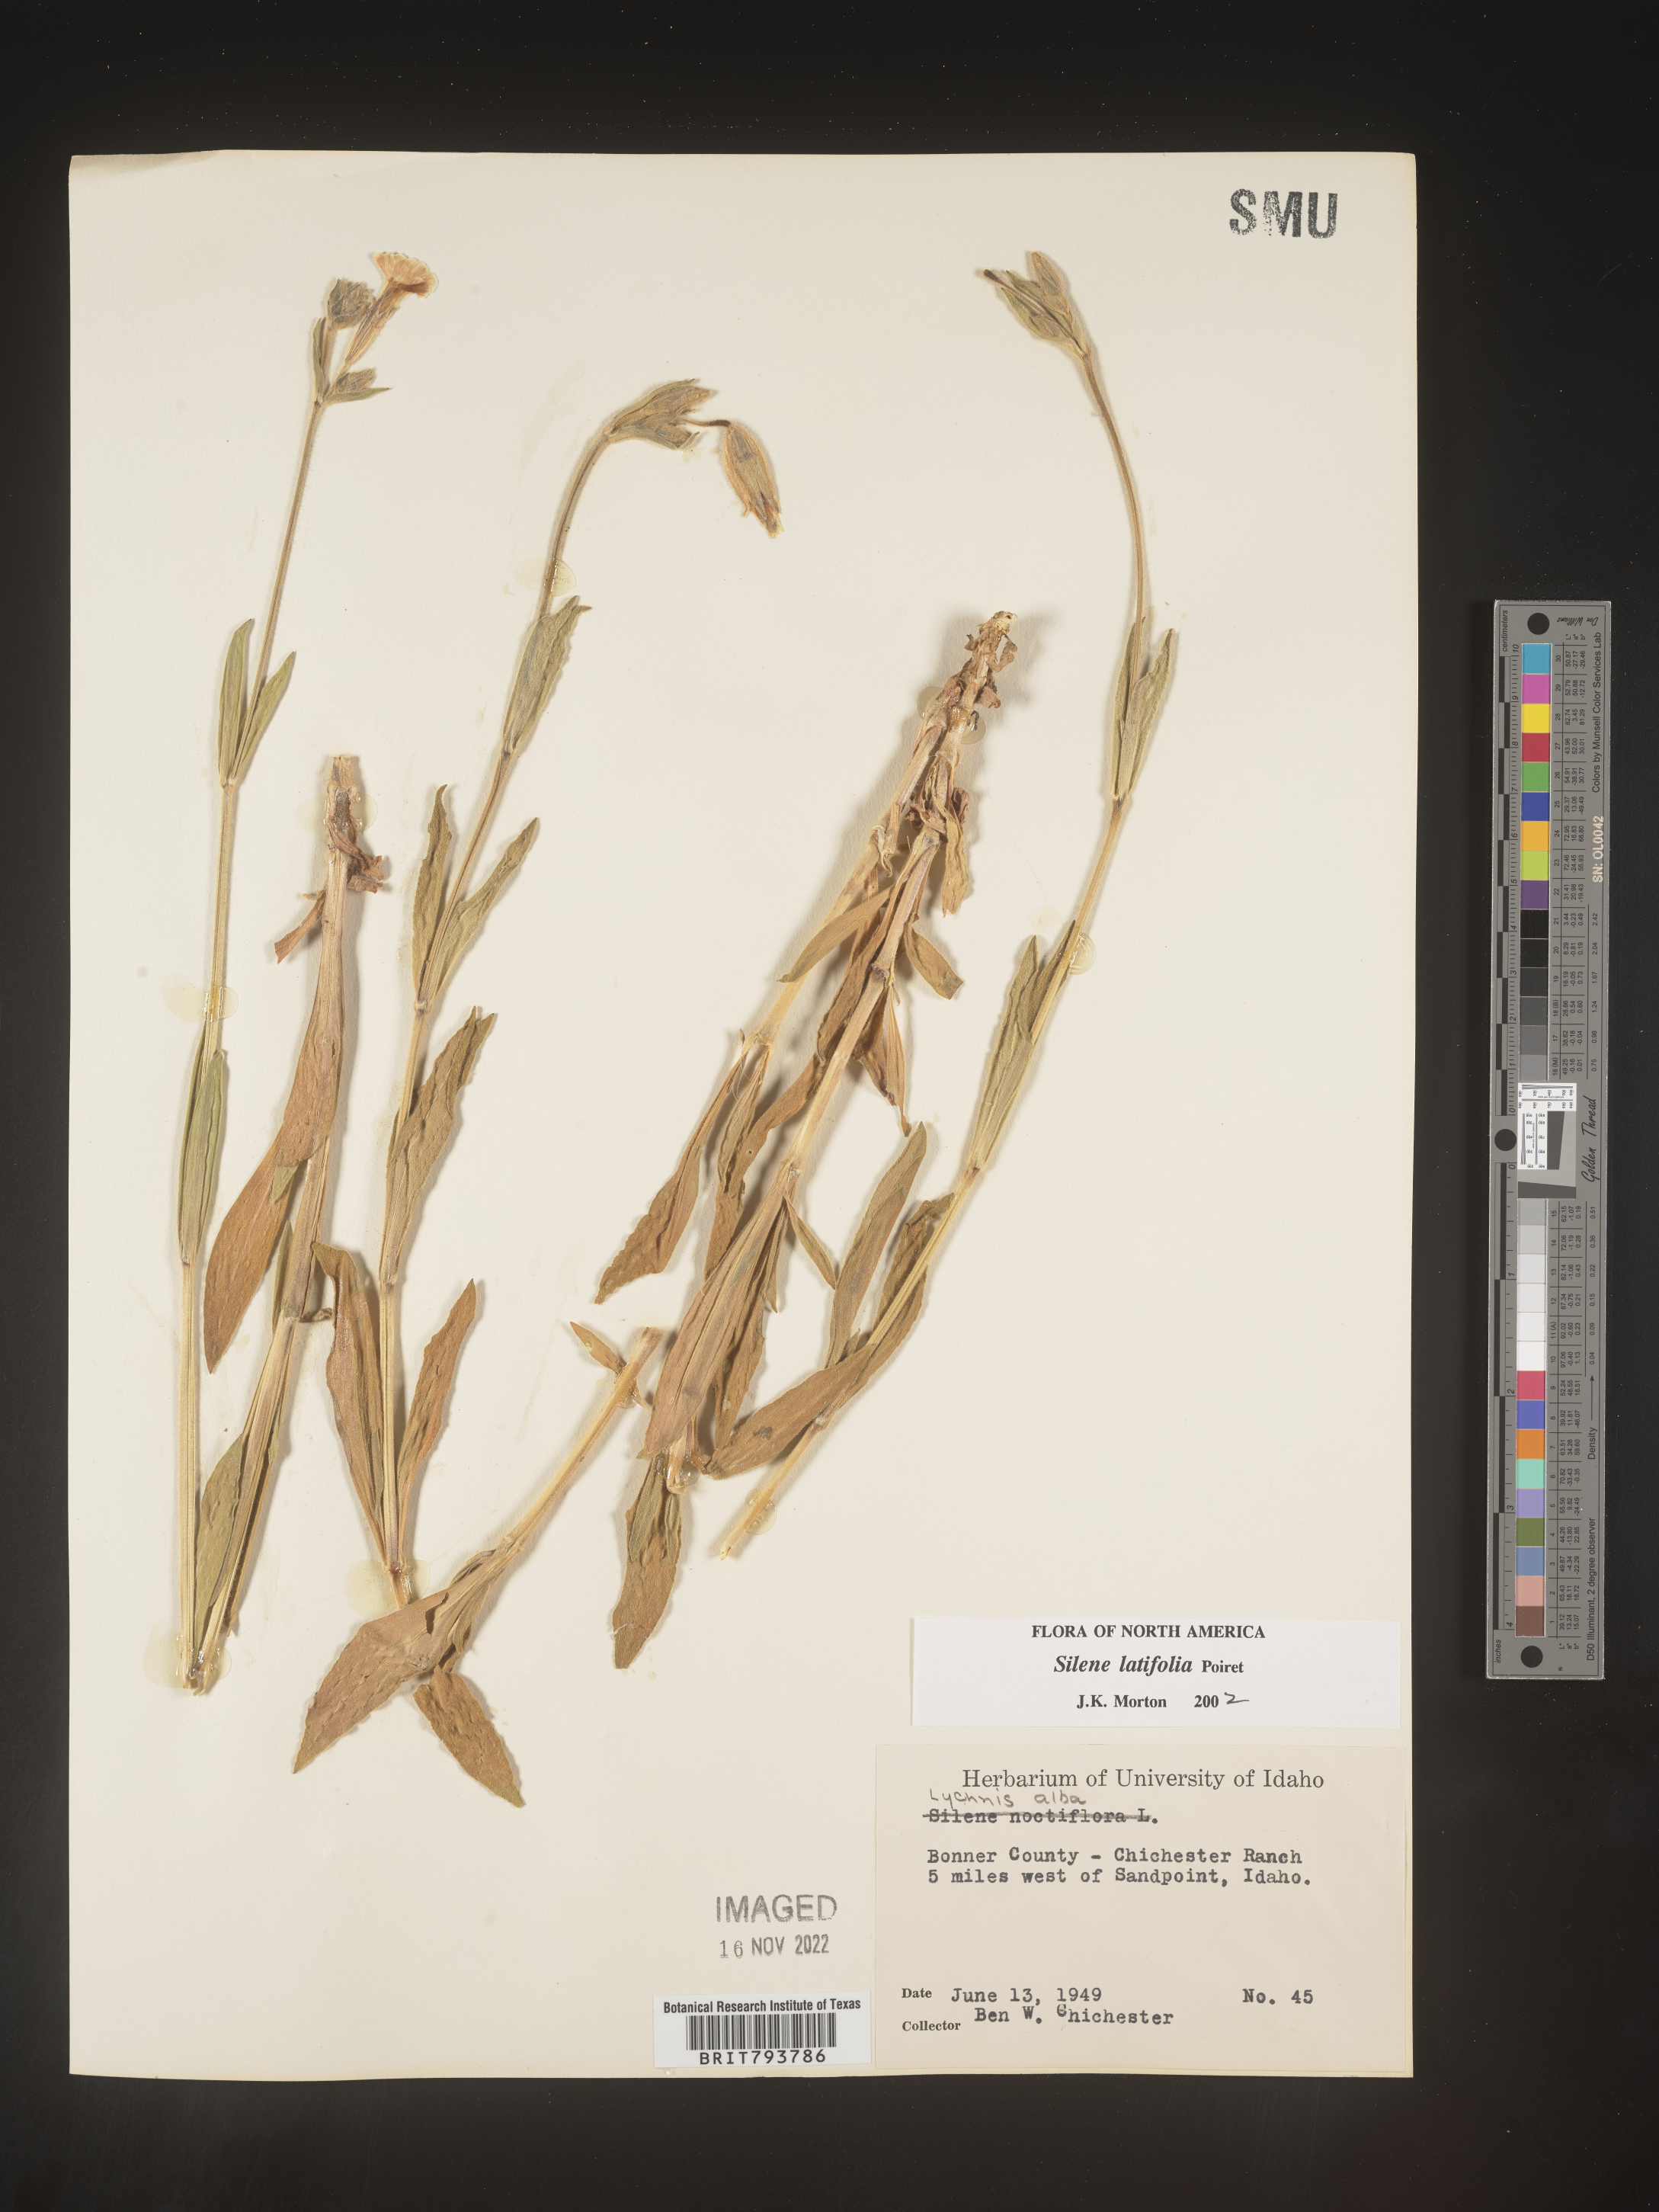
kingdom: Plantae
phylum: Tracheophyta
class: Magnoliopsida
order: Caryophyllales
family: Caryophyllaceae
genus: Silene
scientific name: Silene latifolia
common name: White campion
